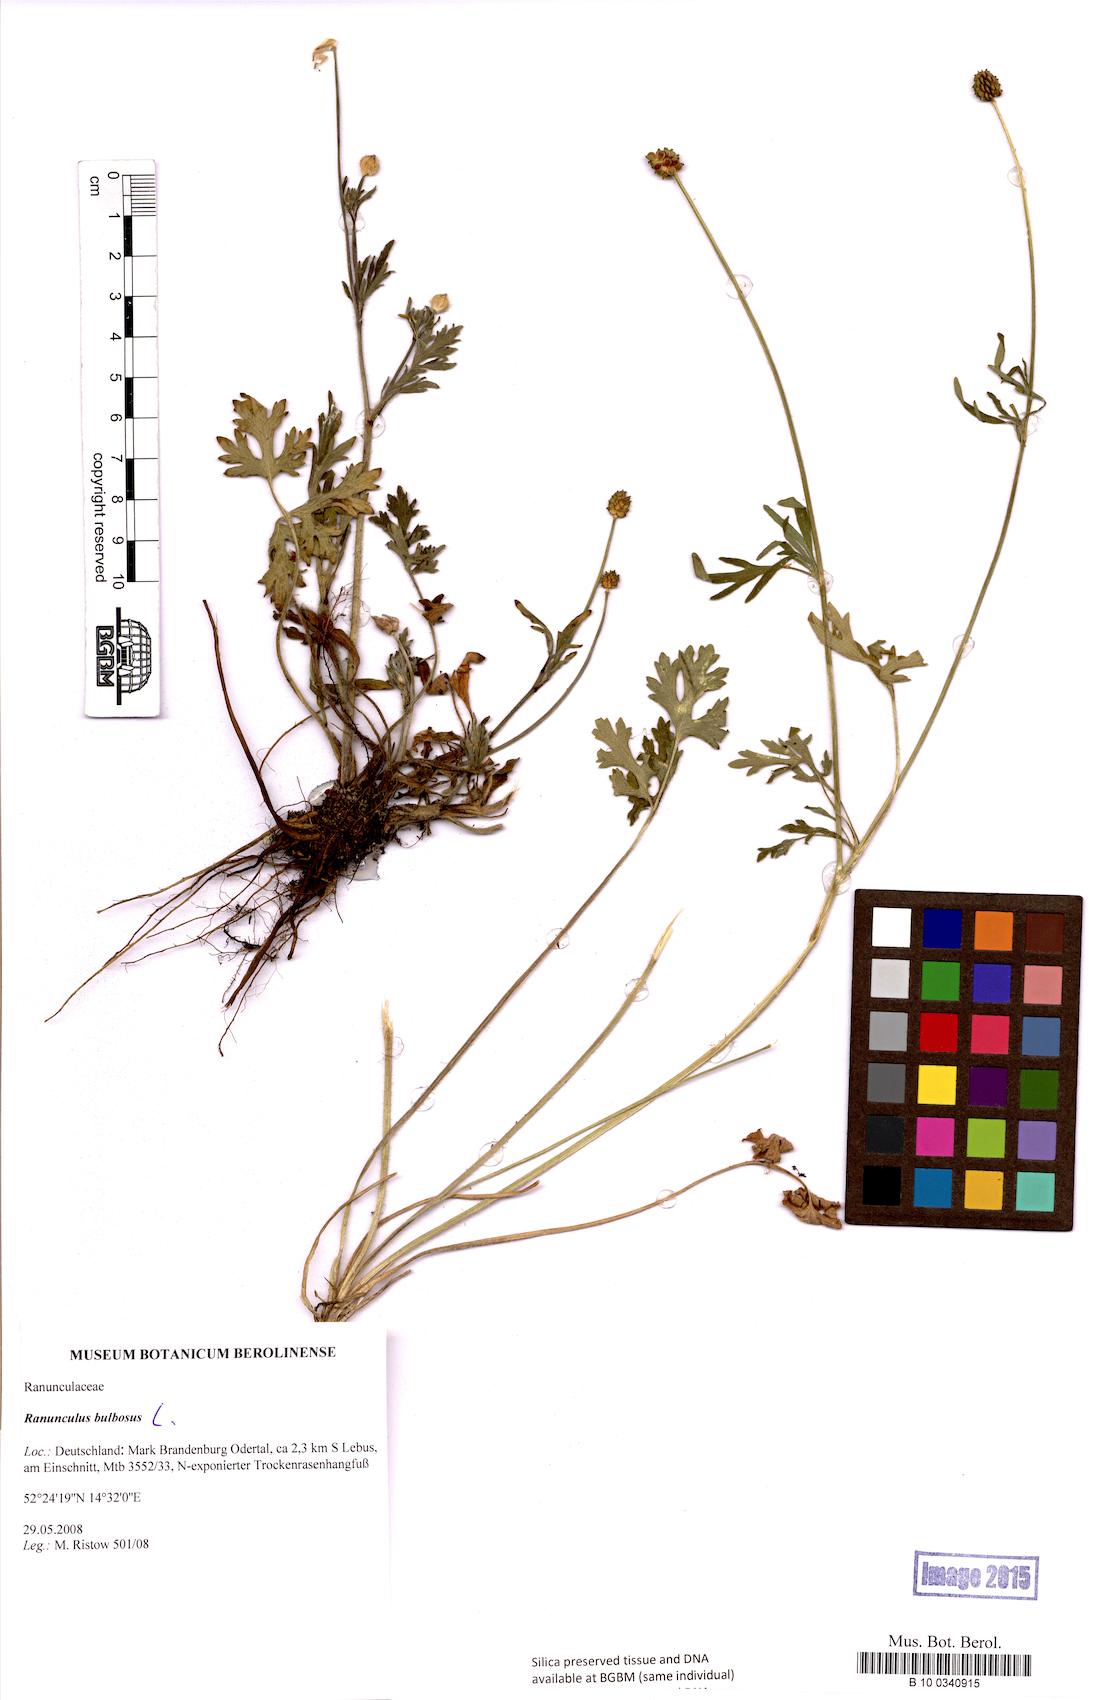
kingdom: Plantae
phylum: Tracheophyta
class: Magnoliopsida
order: Ranunculales
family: Ranunculaceae
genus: Ranunculus
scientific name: Ranunculus bulbosus
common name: Bulbous buttercup
